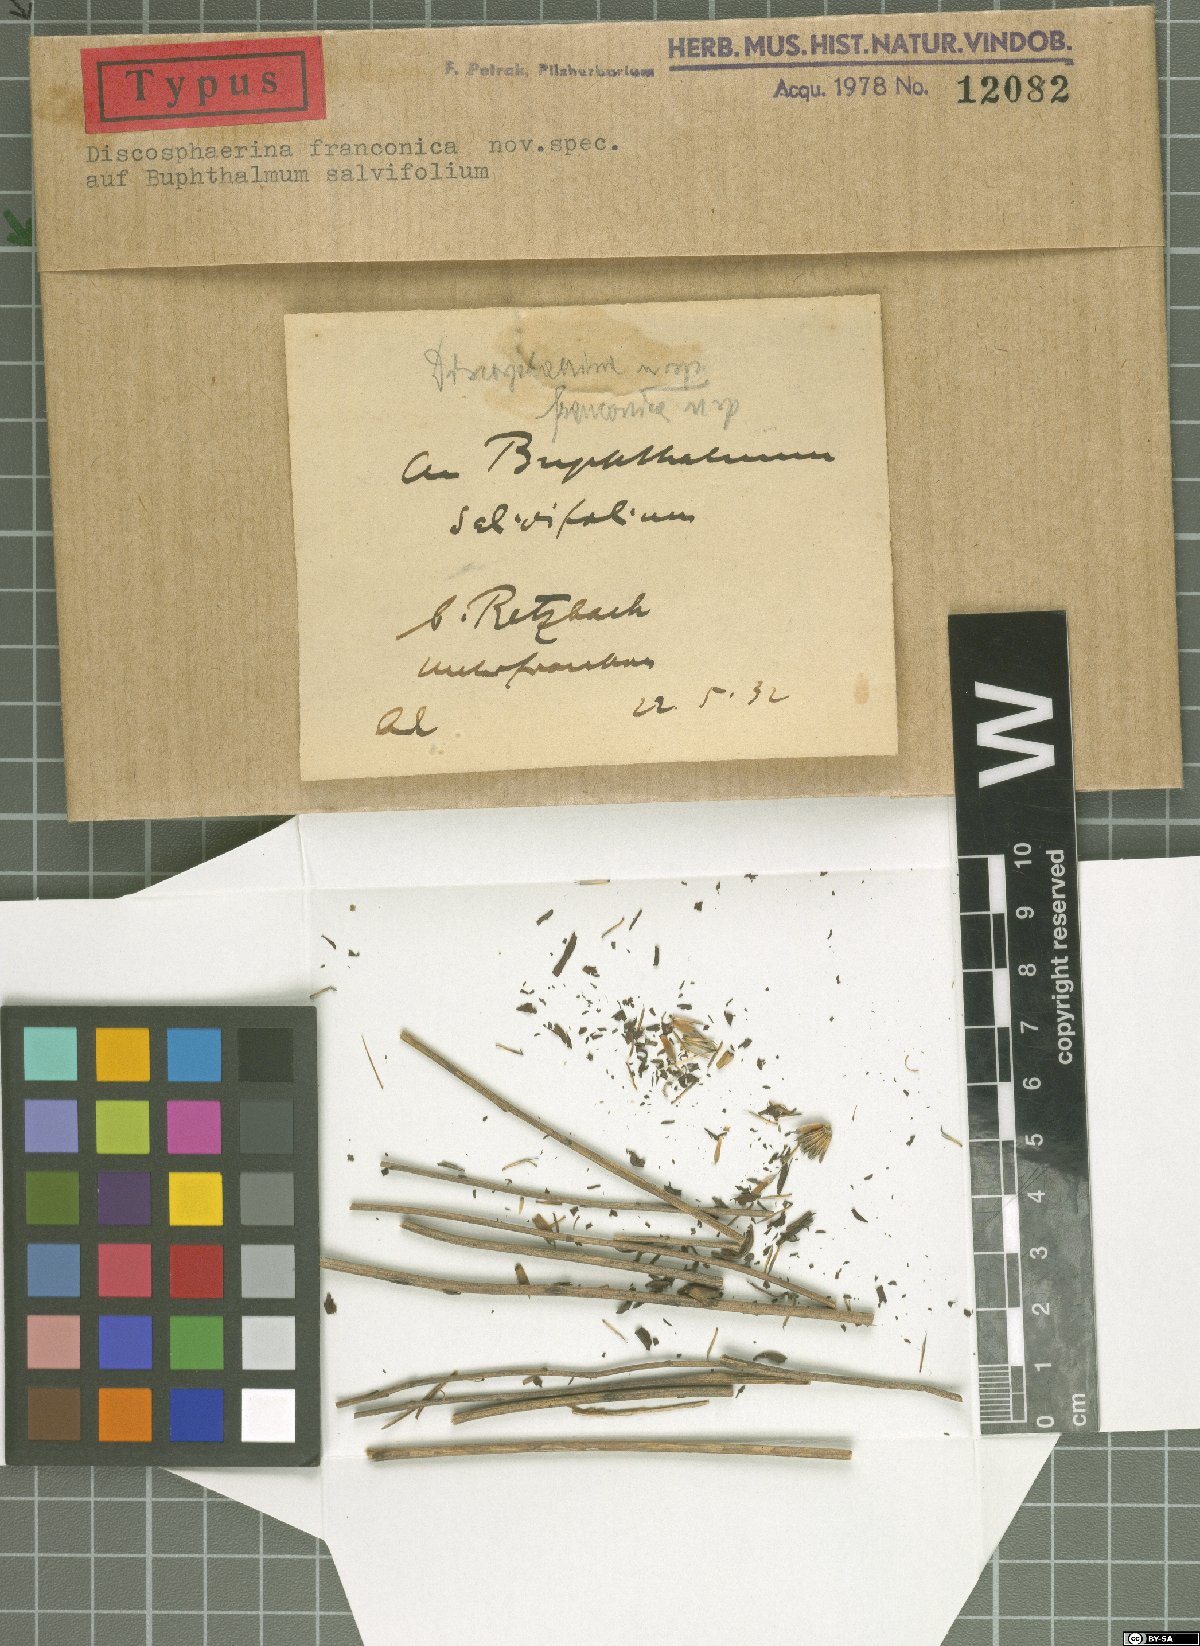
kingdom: Fungi
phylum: Ascomycota
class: Dothideomycetes
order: Botryosphaeriales
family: Phyllostictaceae
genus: Guignardia
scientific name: Guignardia franconica
